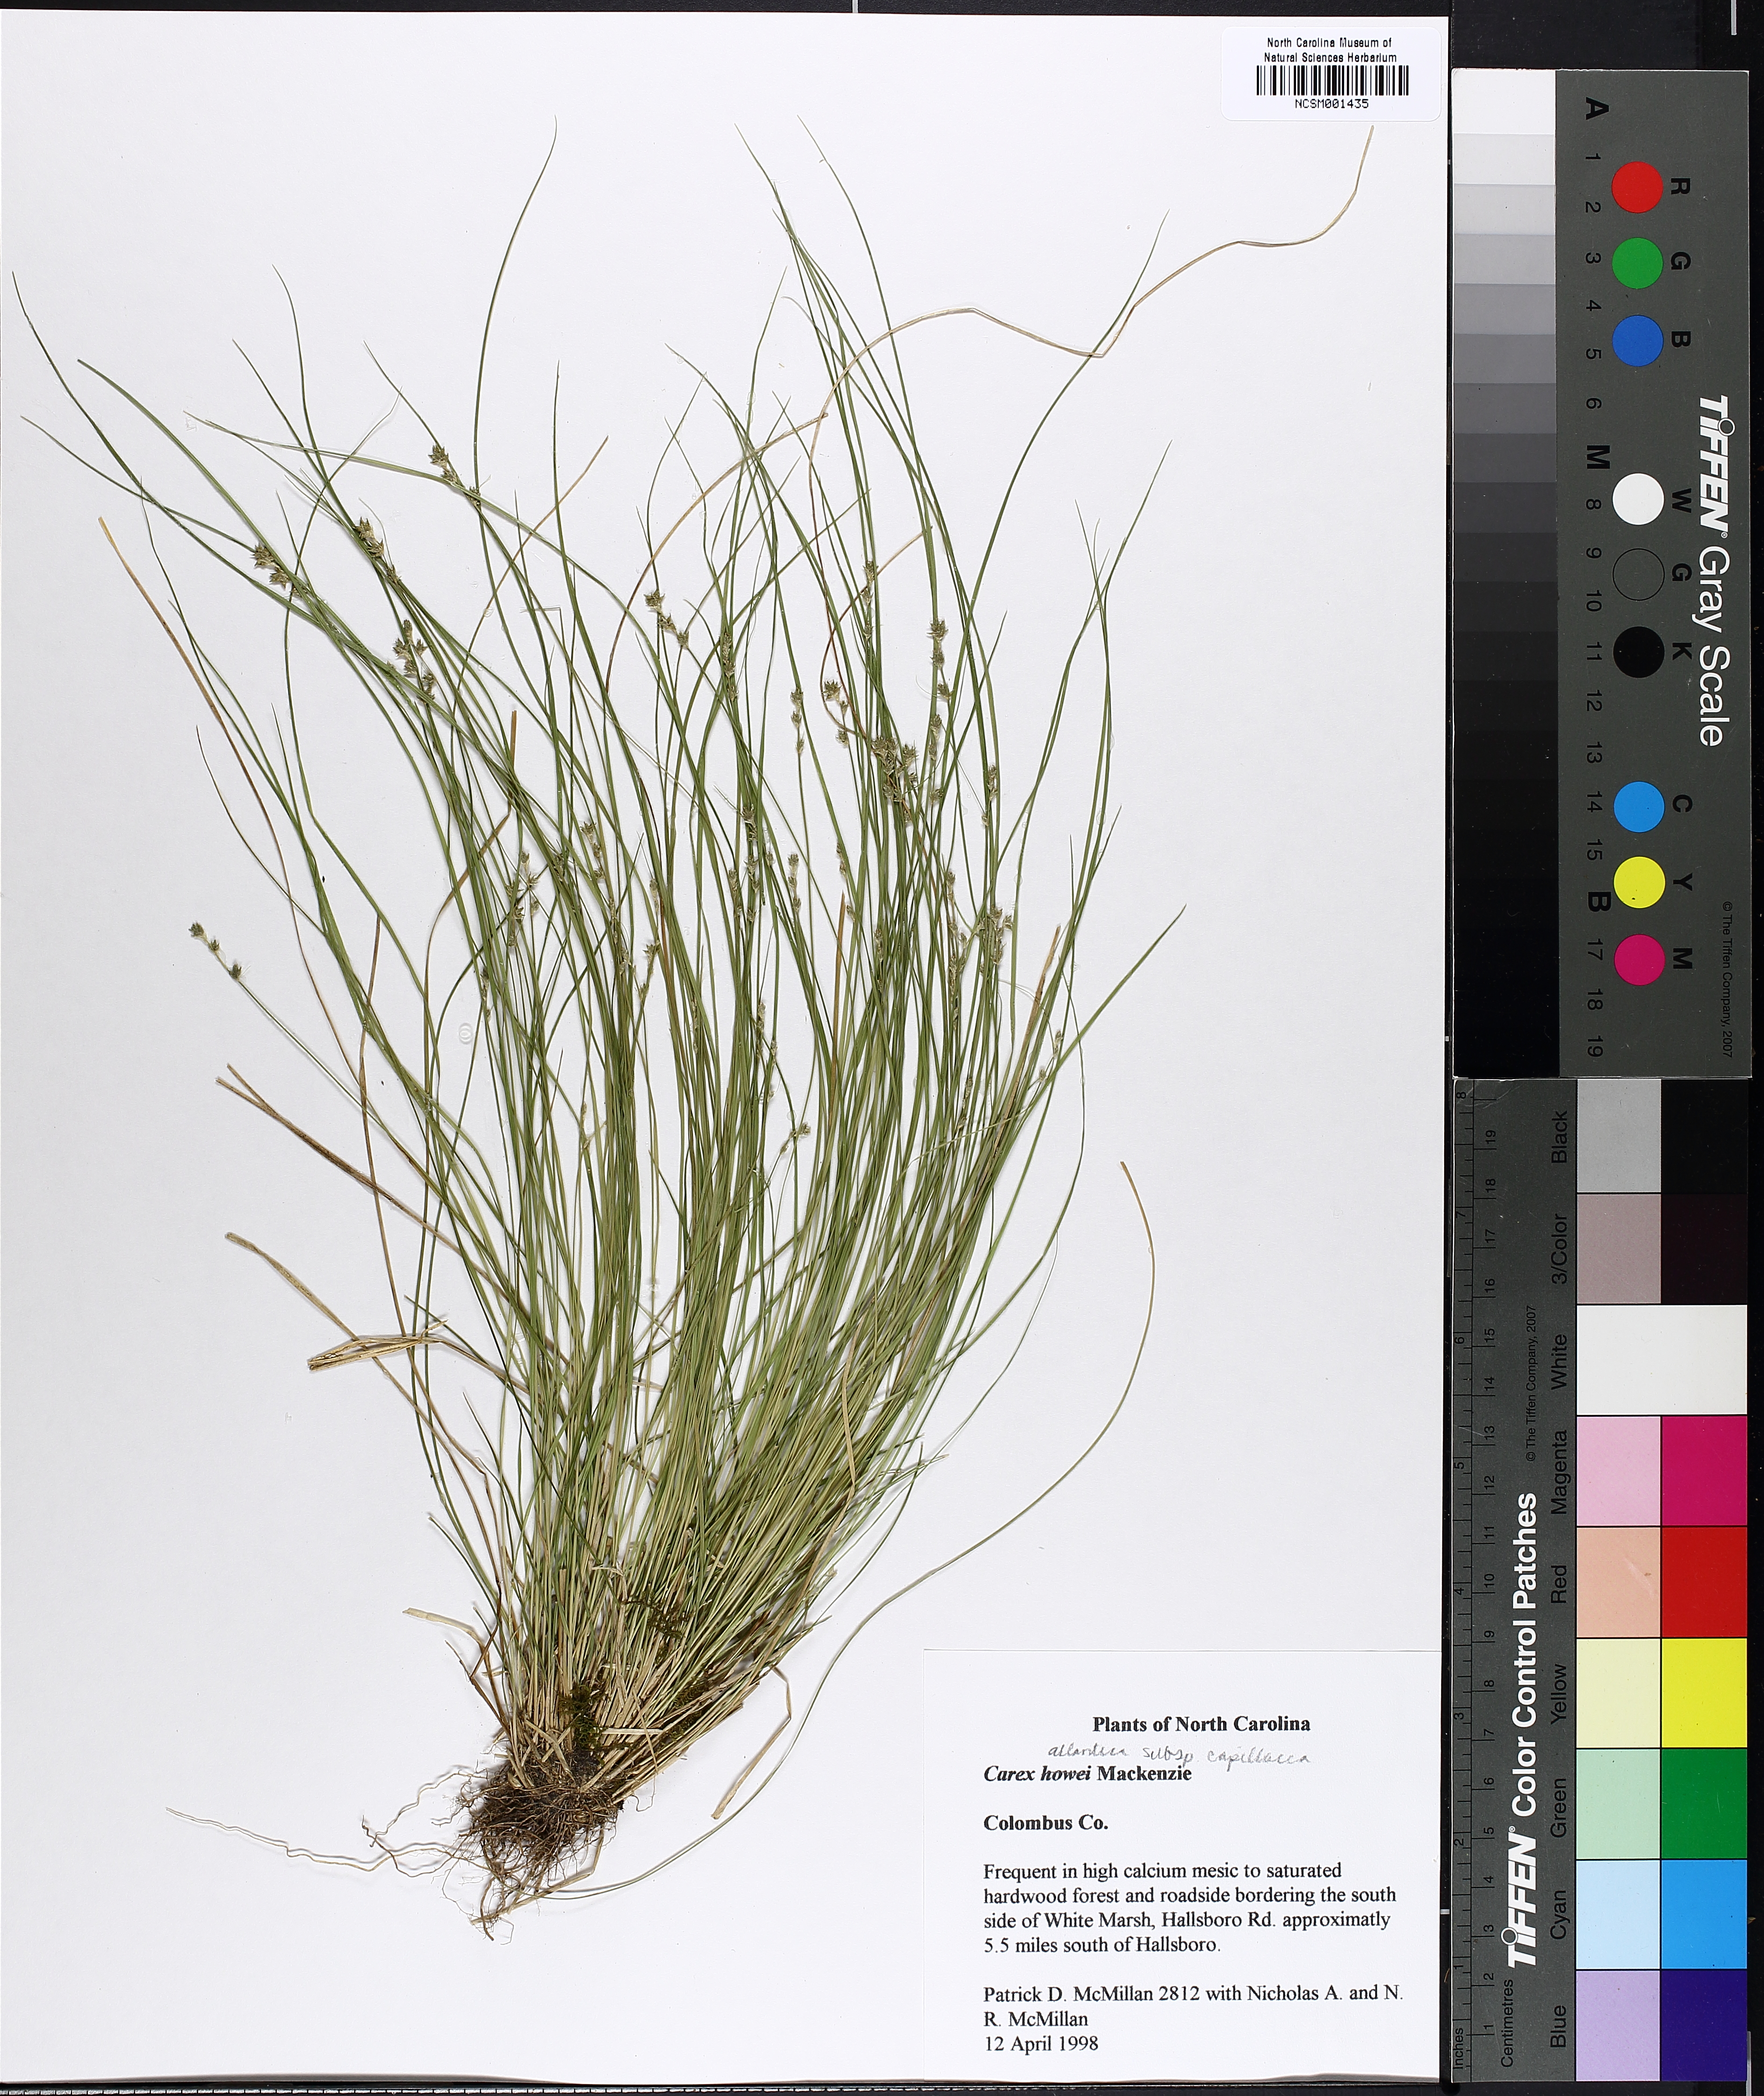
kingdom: Plantae
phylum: Tracheophyta
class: Liliopsida
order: Poales
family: Cyperaceae
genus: Carex
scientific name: Carex atlantica
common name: Atlantic sedge
